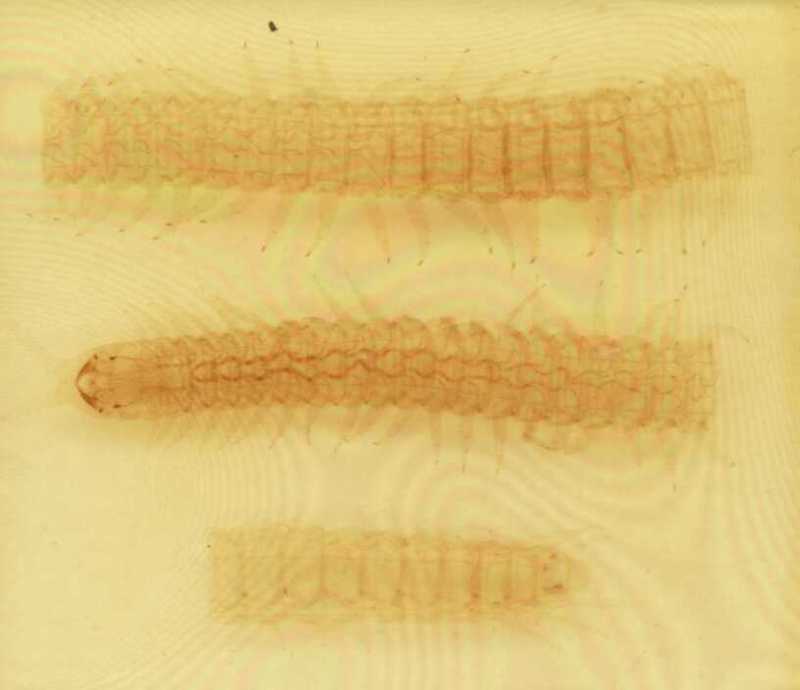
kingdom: Animalia
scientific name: Animalia
